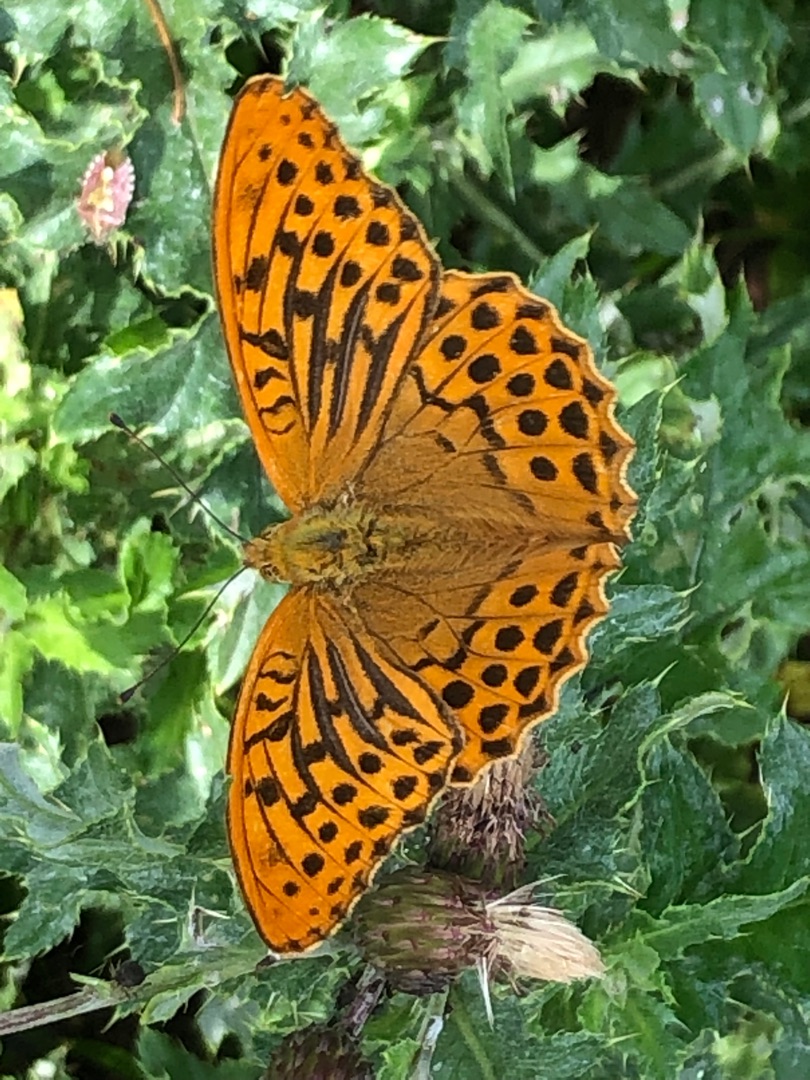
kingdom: Animalia
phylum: Arthropoda
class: Insecta
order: Lepidoptera
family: Nymphalidae
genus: Argynnis
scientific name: Argynnis paphia
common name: Kejserkåbe
